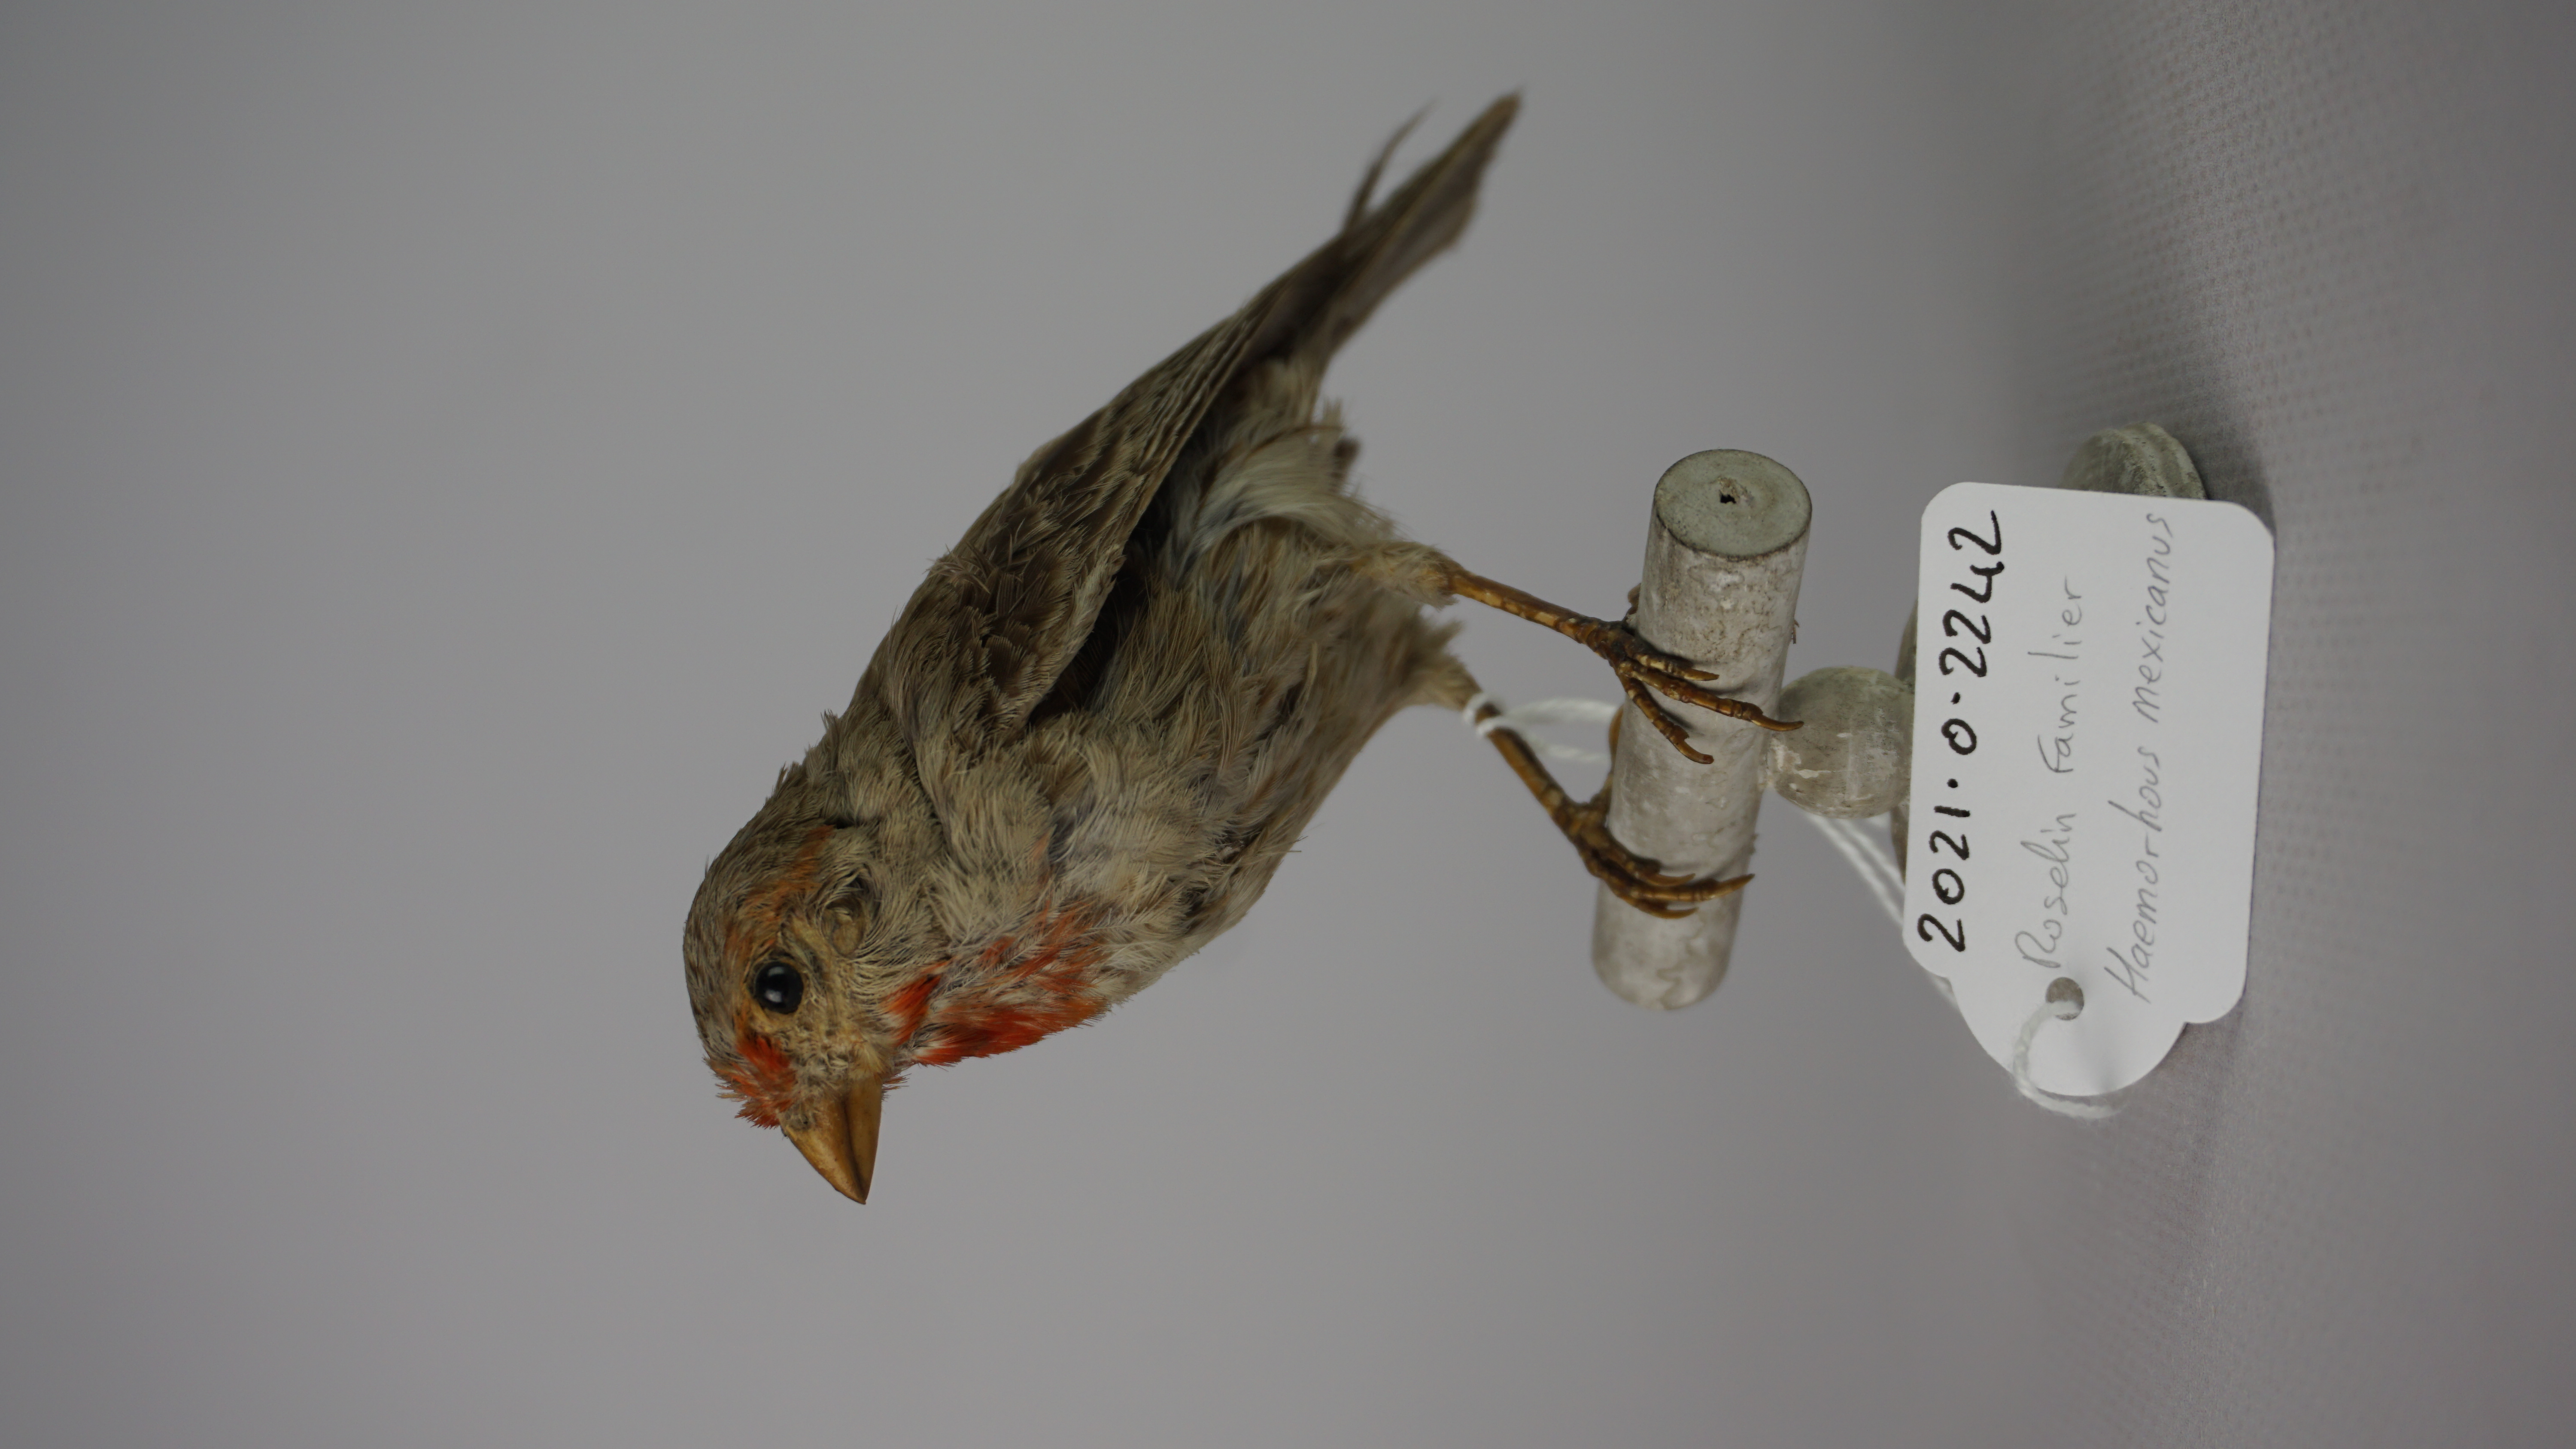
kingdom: Animalia
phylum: Chordata
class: Aves
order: Passeriformes
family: Fringillidae
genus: Haemorhous
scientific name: Haemorhous mexicanus
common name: House finch
